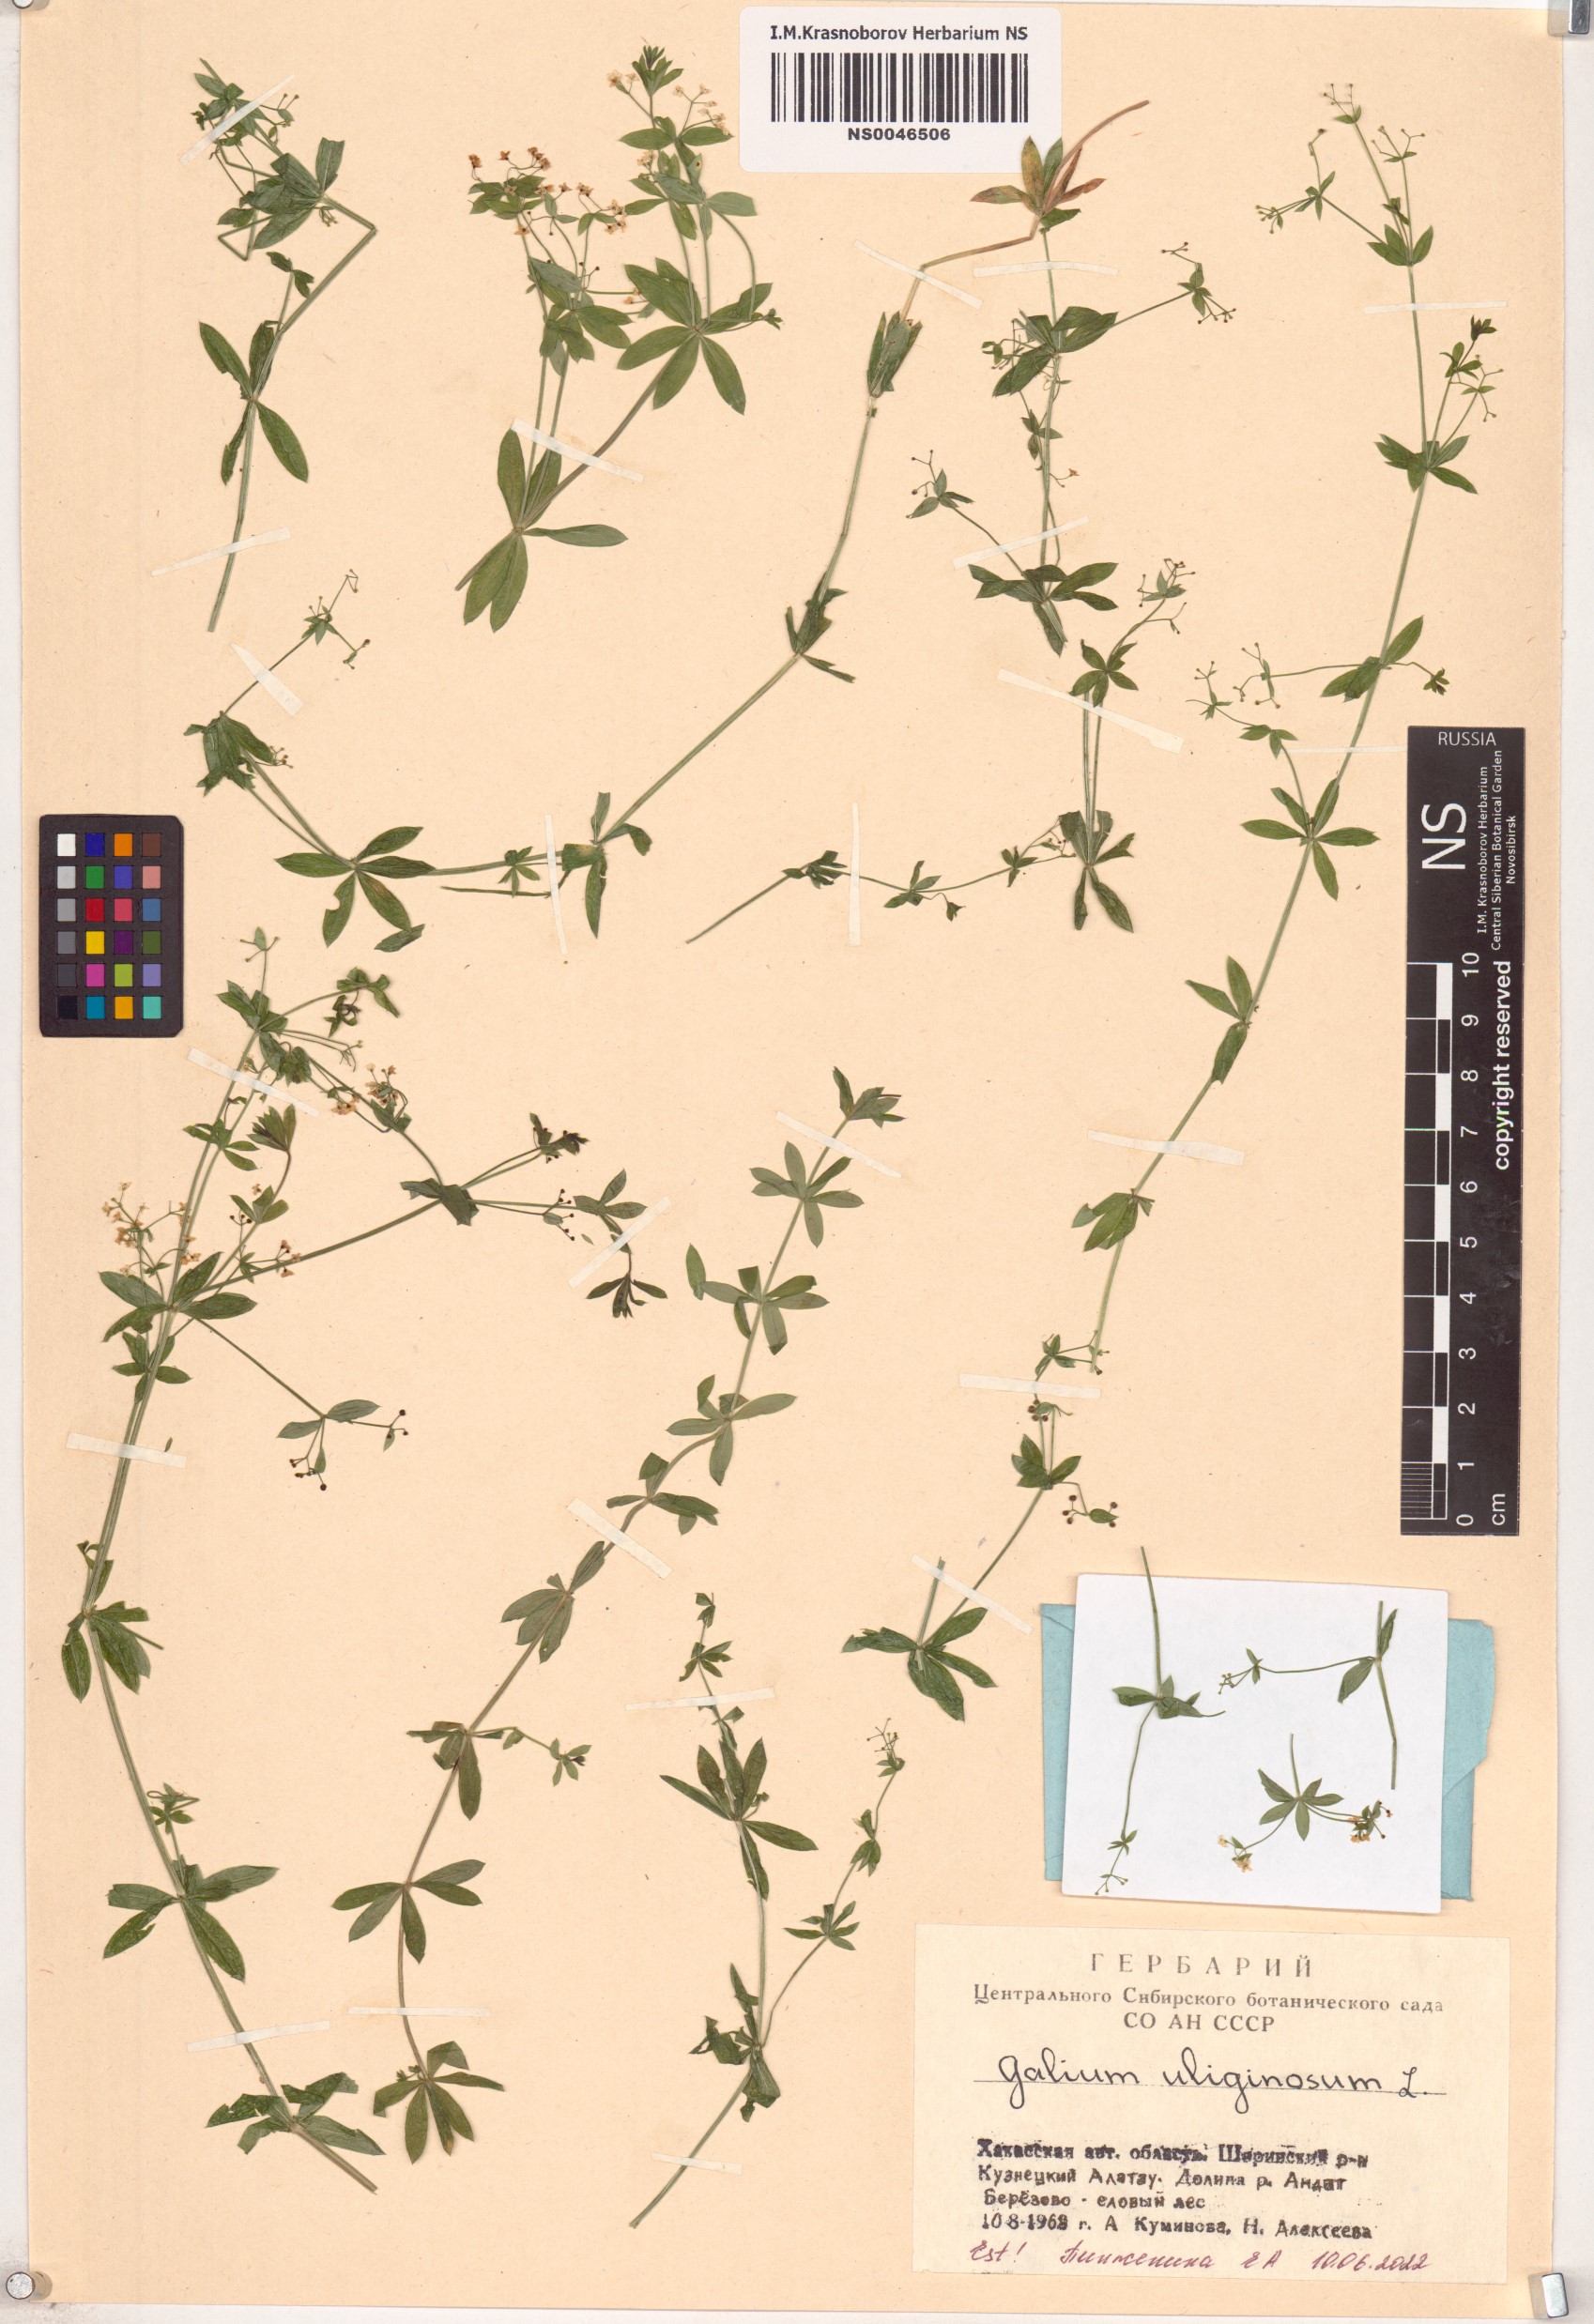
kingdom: Plantae
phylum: Tracheophyta
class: Magnoliopsida
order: Gentianales
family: Rubiaceae
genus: Galium
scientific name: Galium uliginosum
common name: Fen bedstraw
